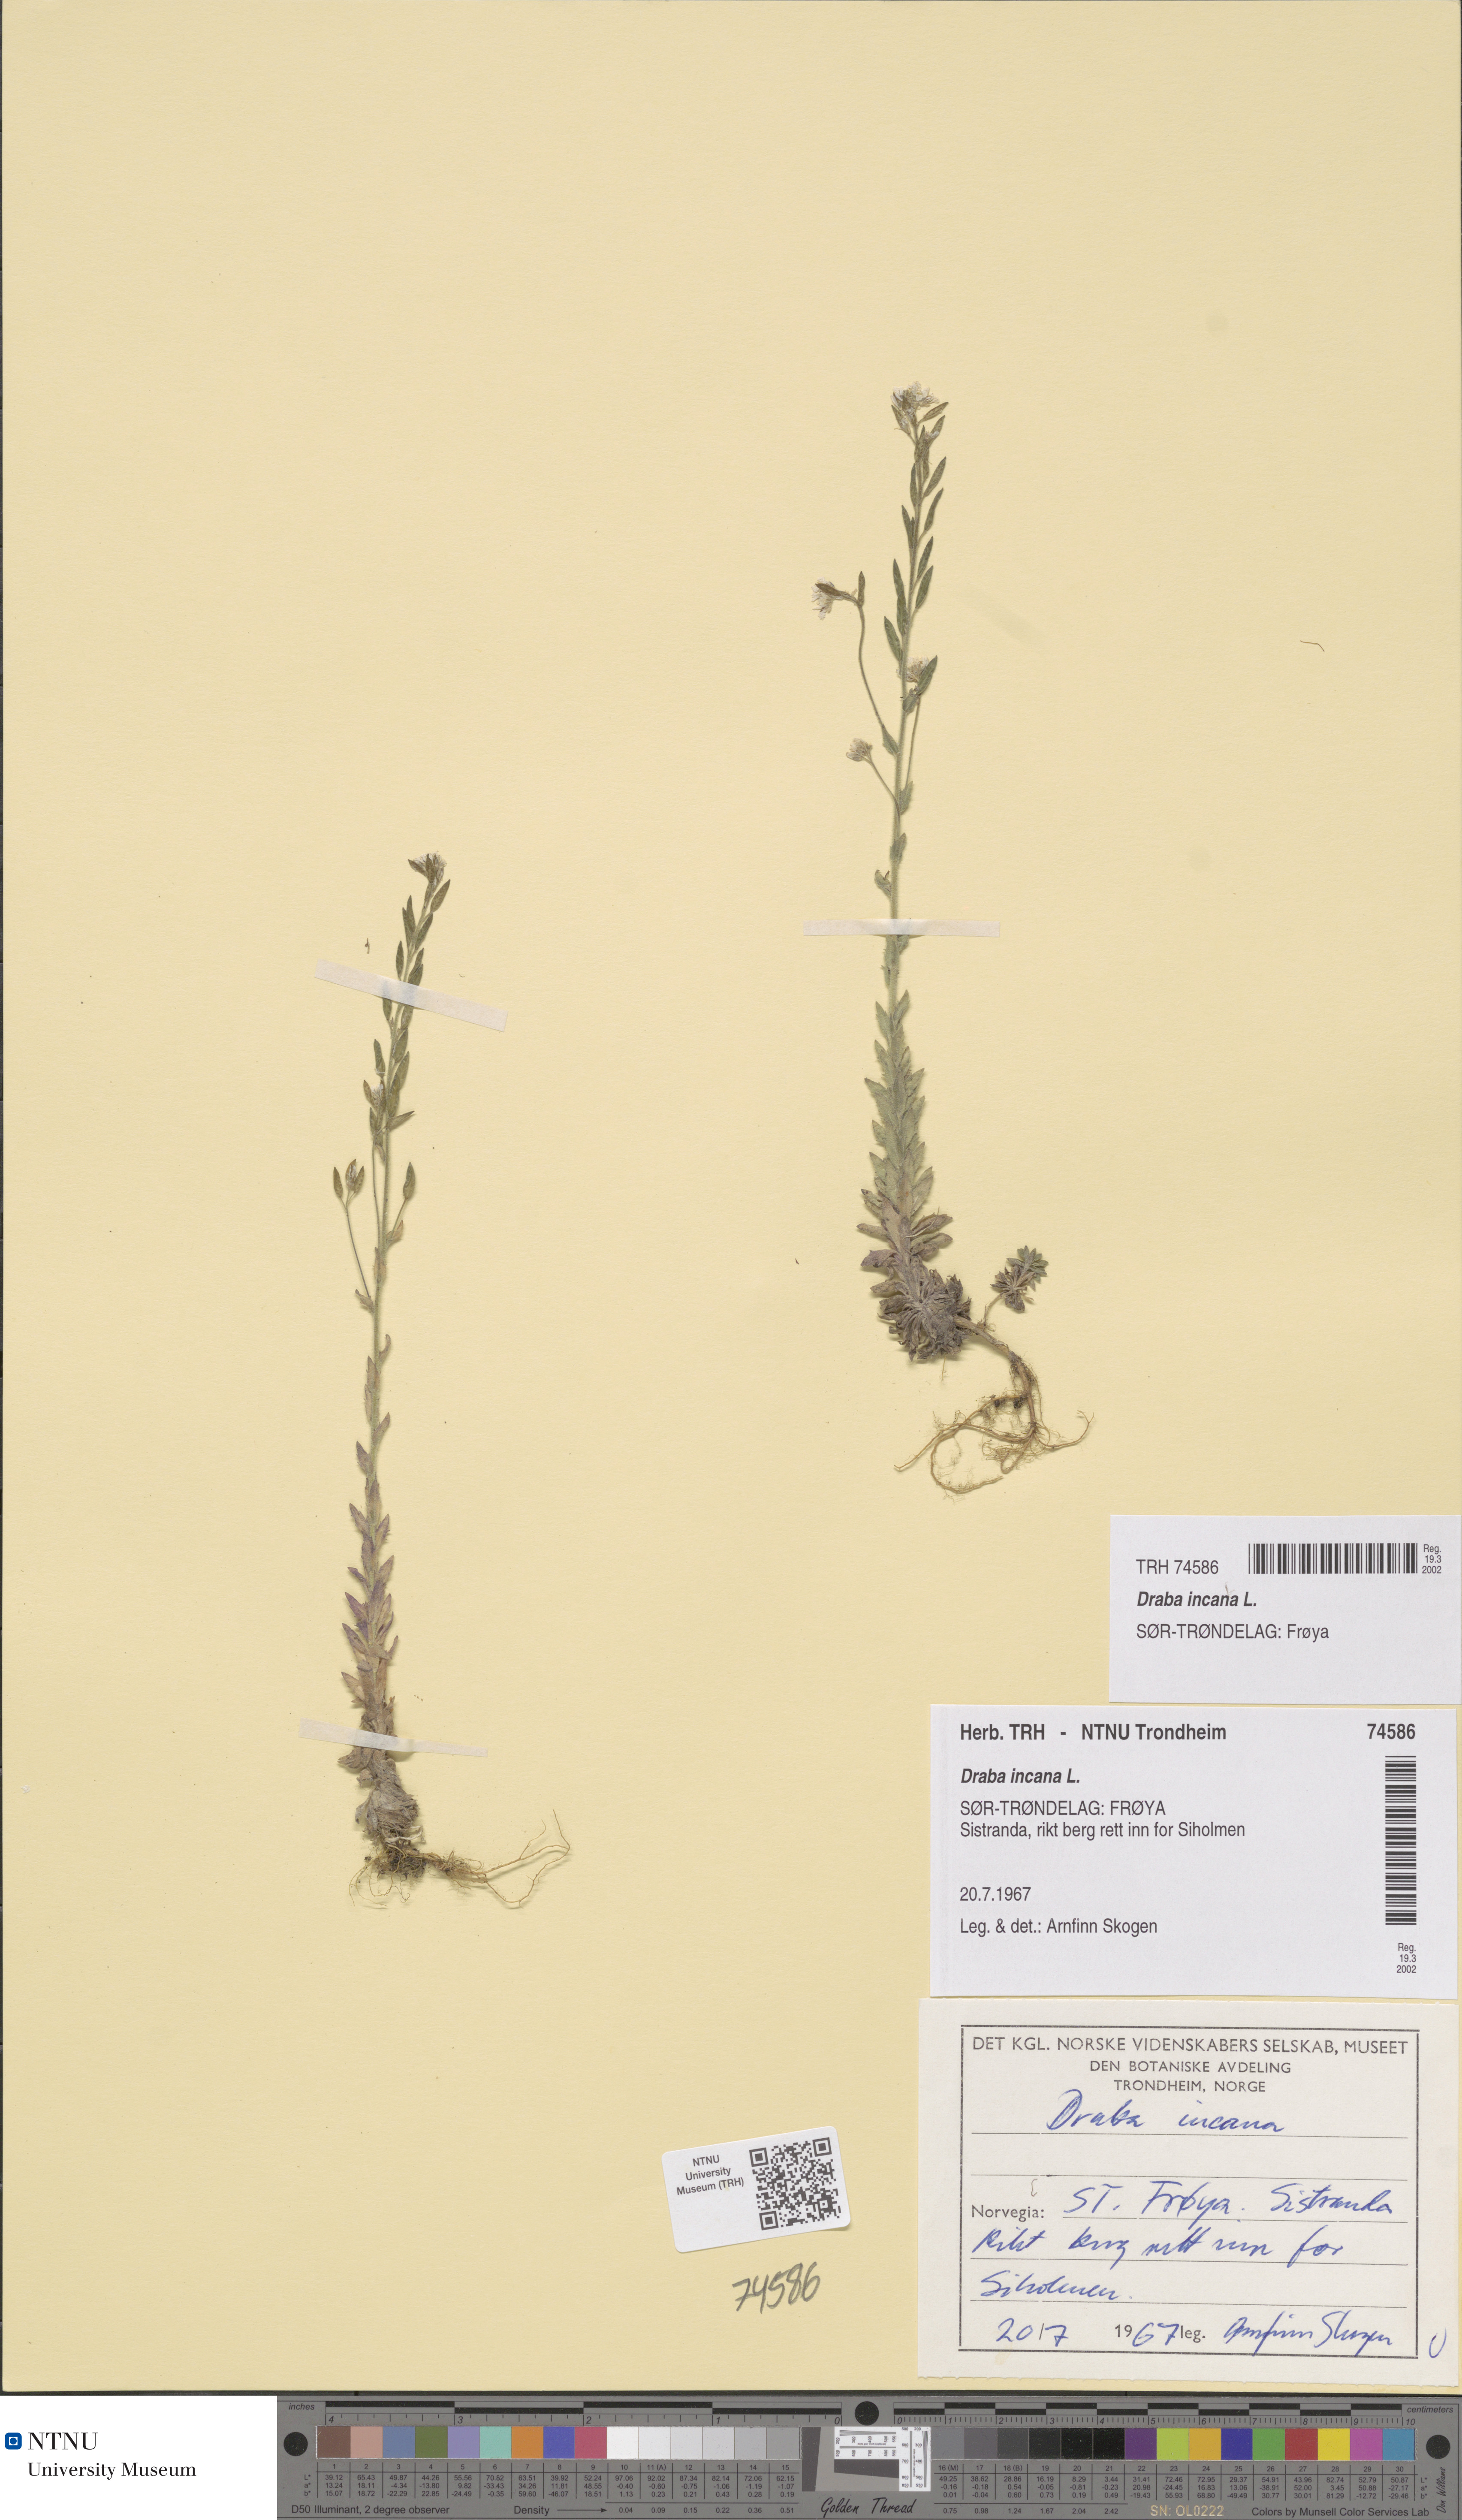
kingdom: Plantae
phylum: Tracheophyta
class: Magnoliopsida
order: Brassicales
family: Brassicaceae
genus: Draba
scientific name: Draba incana
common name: Hoary whitlow-grass
